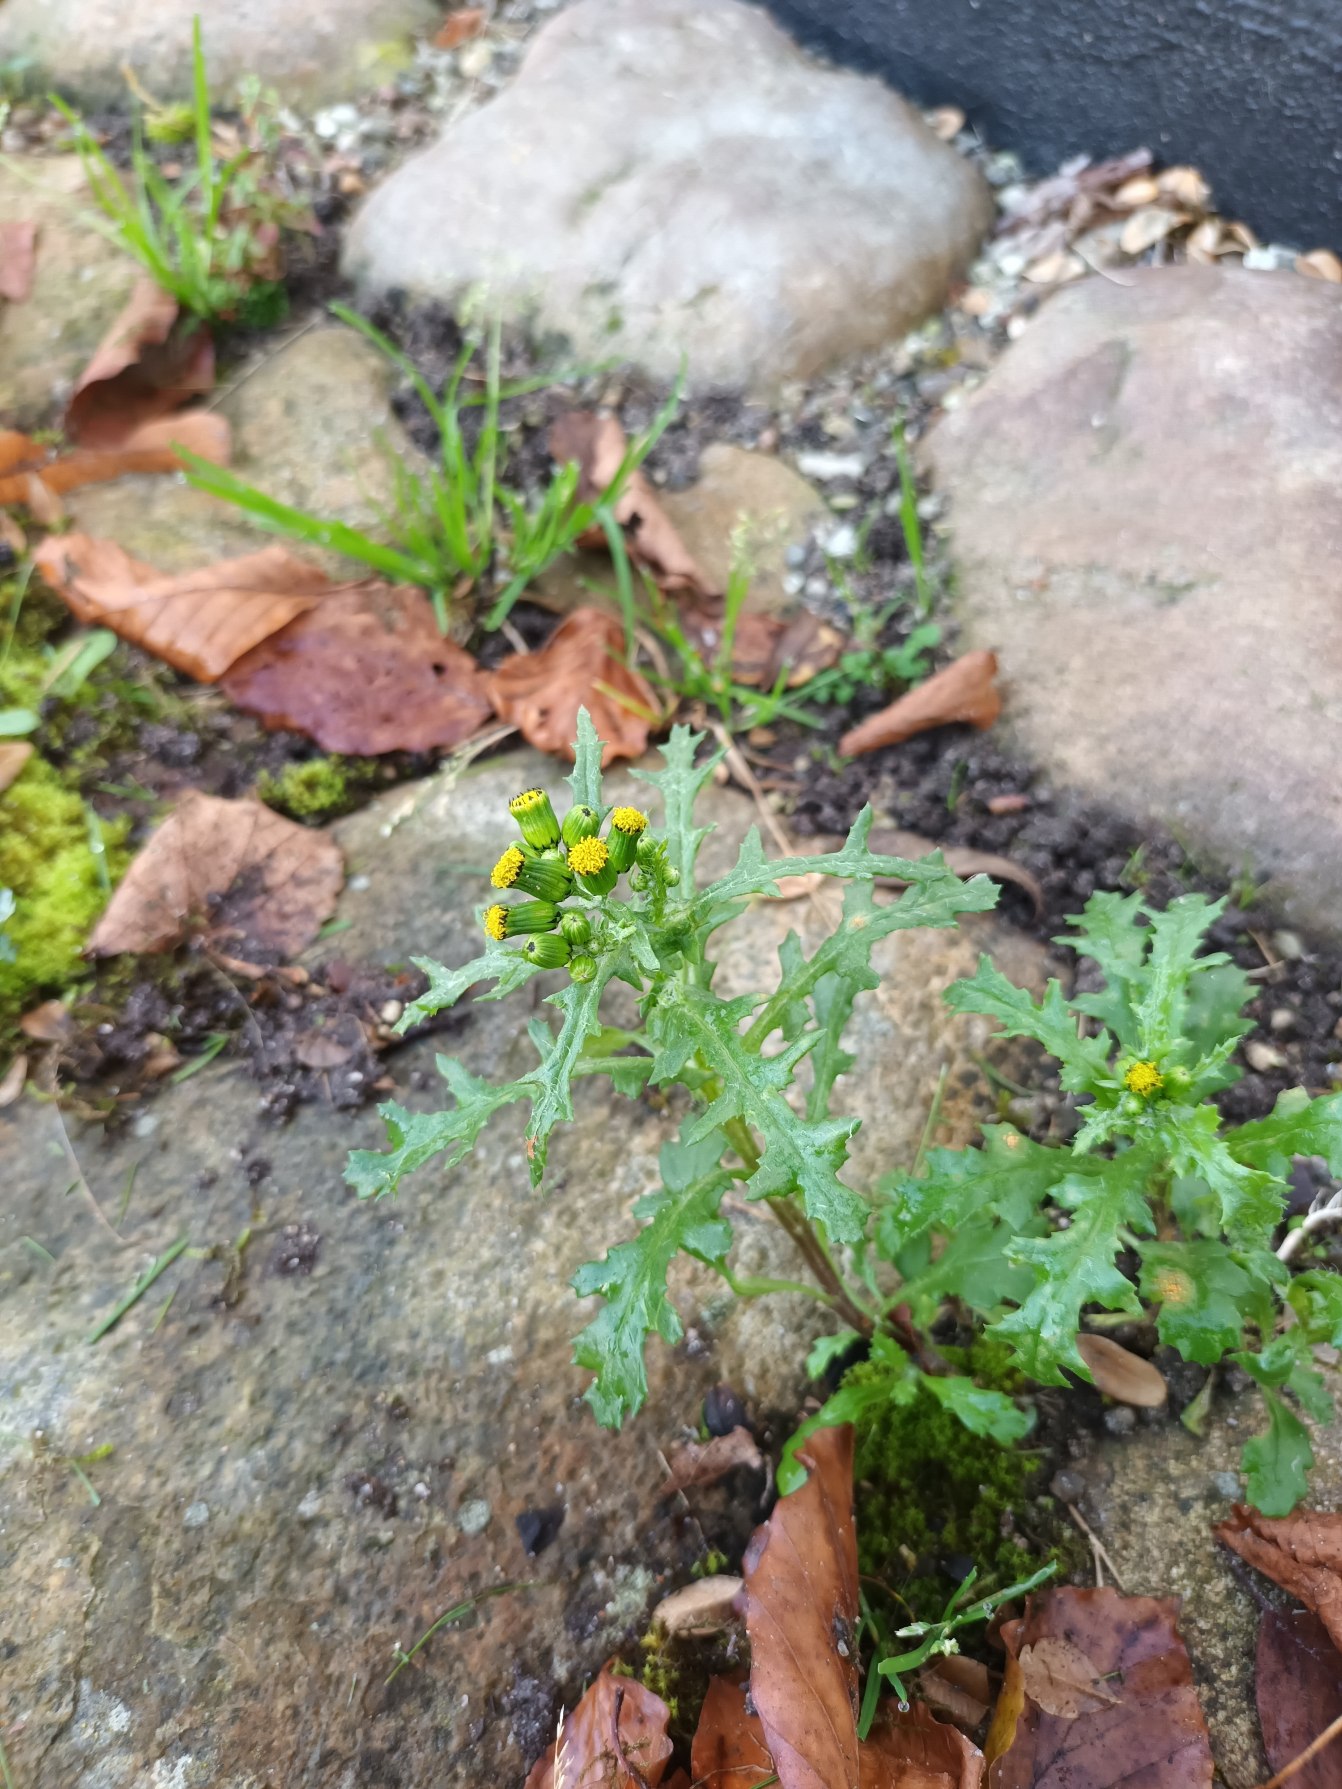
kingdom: Plantae
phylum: Tracheophyta
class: Magnoliopsida
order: Asterales
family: Asteraceae
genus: Senecio
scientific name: Senecio vulgaris
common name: Almindelig brandbæger
